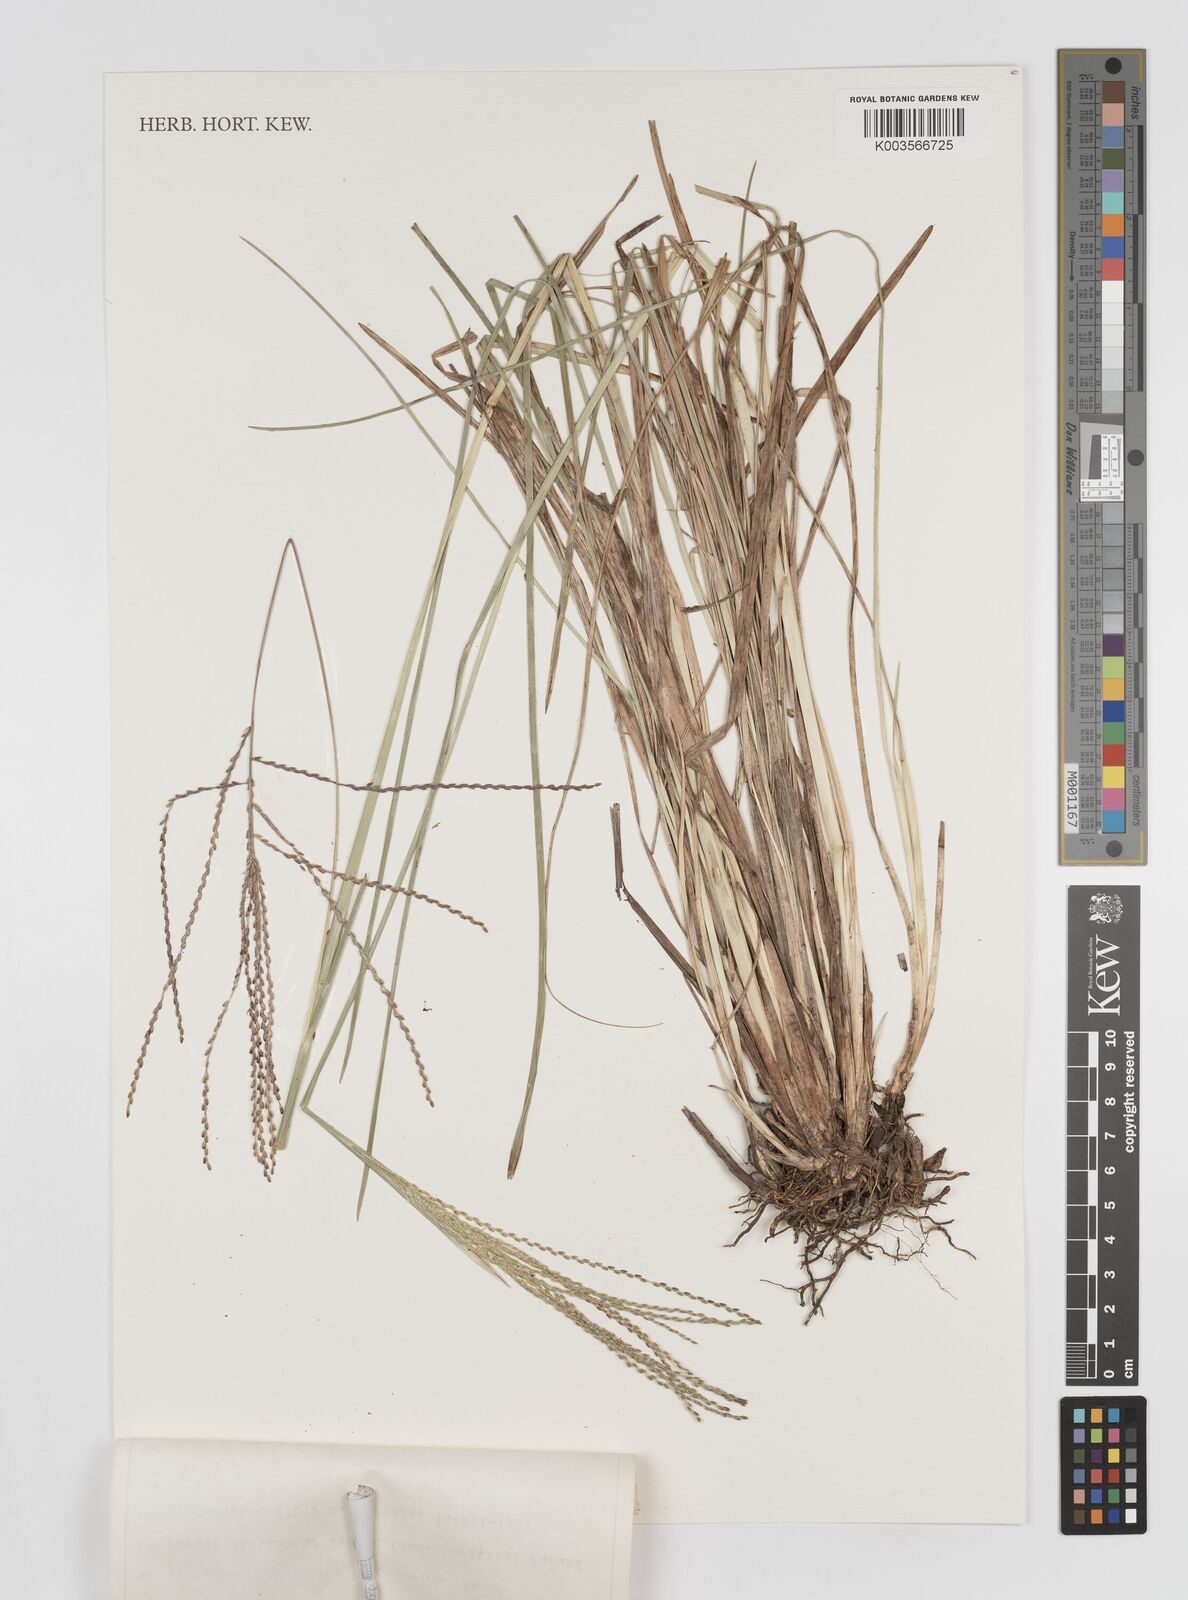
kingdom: Plantae
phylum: Tracheophyta
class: Liliopsida
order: Poales
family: Poaceae
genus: Axonopus
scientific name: Axonopus suffultus
